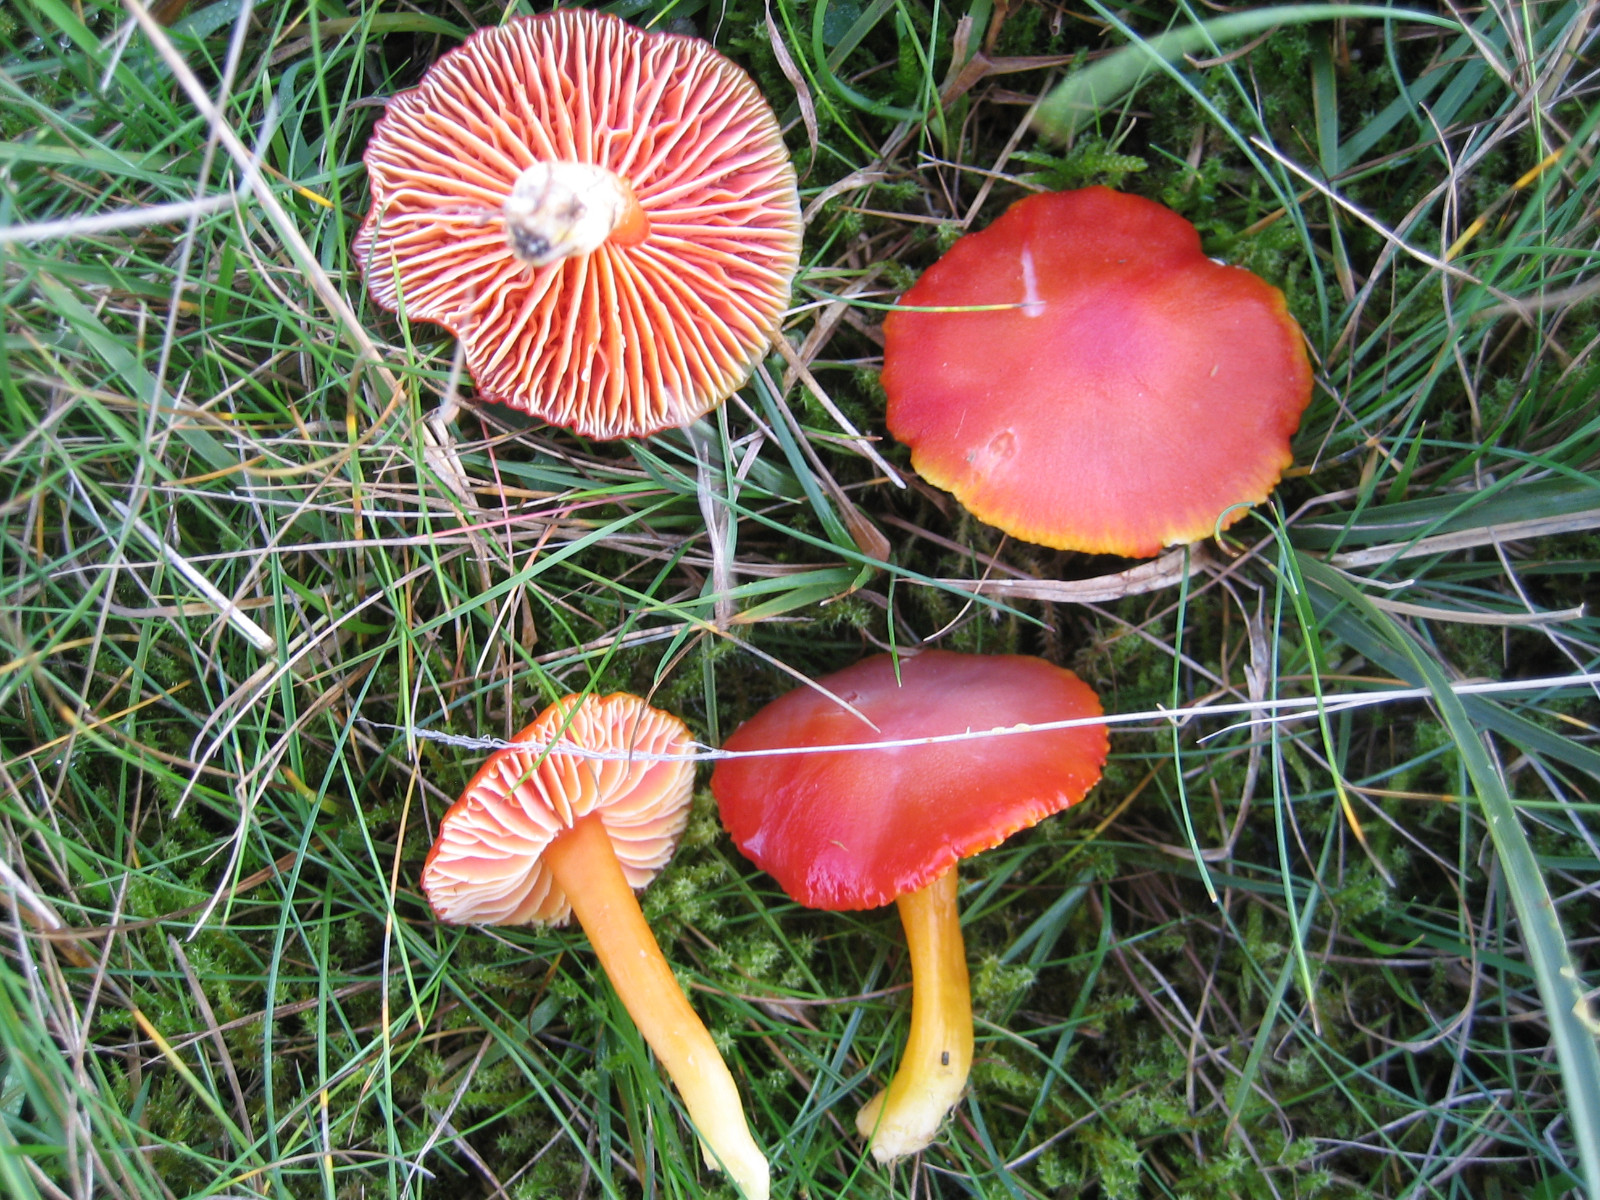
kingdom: Fungi
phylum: Basidiomycota
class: Agaricomycetes
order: Agaricales
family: Hygrophoraceae
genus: Hygrocybe
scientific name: Hygrocybe coccinea
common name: cinnober-vokshat
